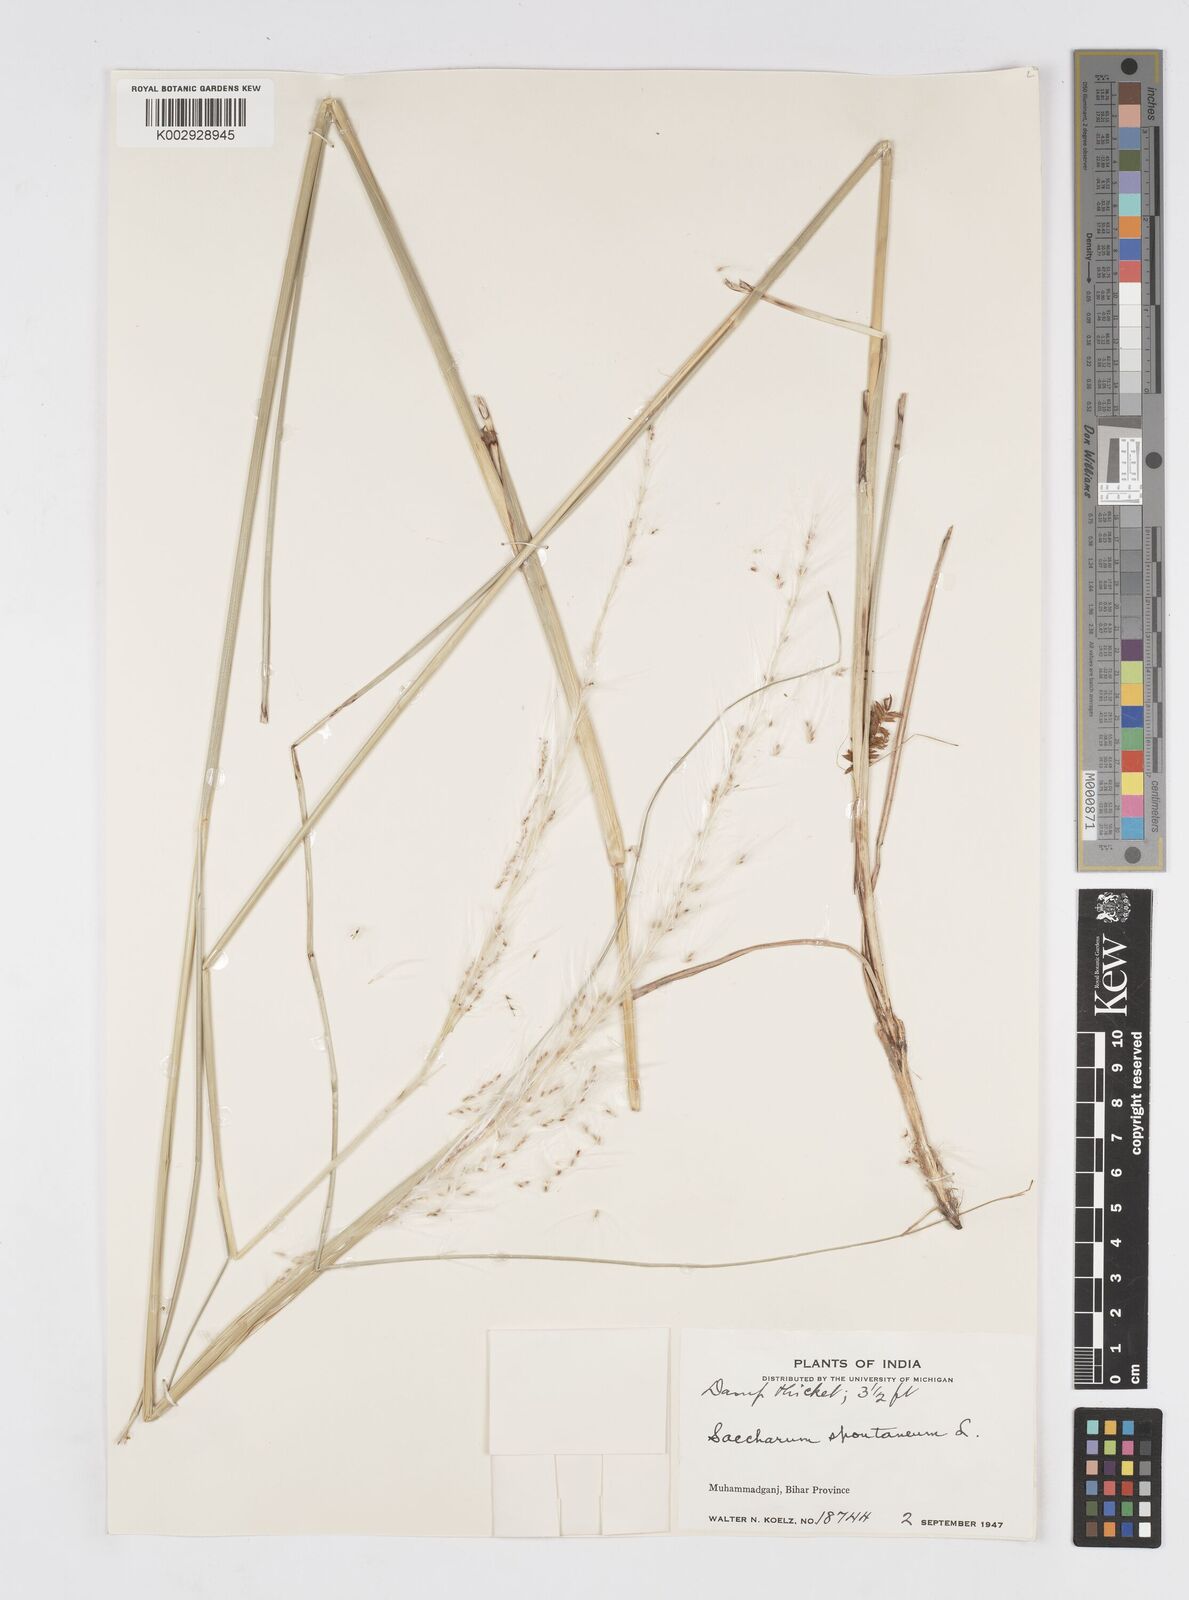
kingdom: Plantae
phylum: Tracheophyta
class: Liliopsida
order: Poales
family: Poaceae
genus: Saccharum
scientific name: Saccharum spontaneum
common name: Wild sugarcane
